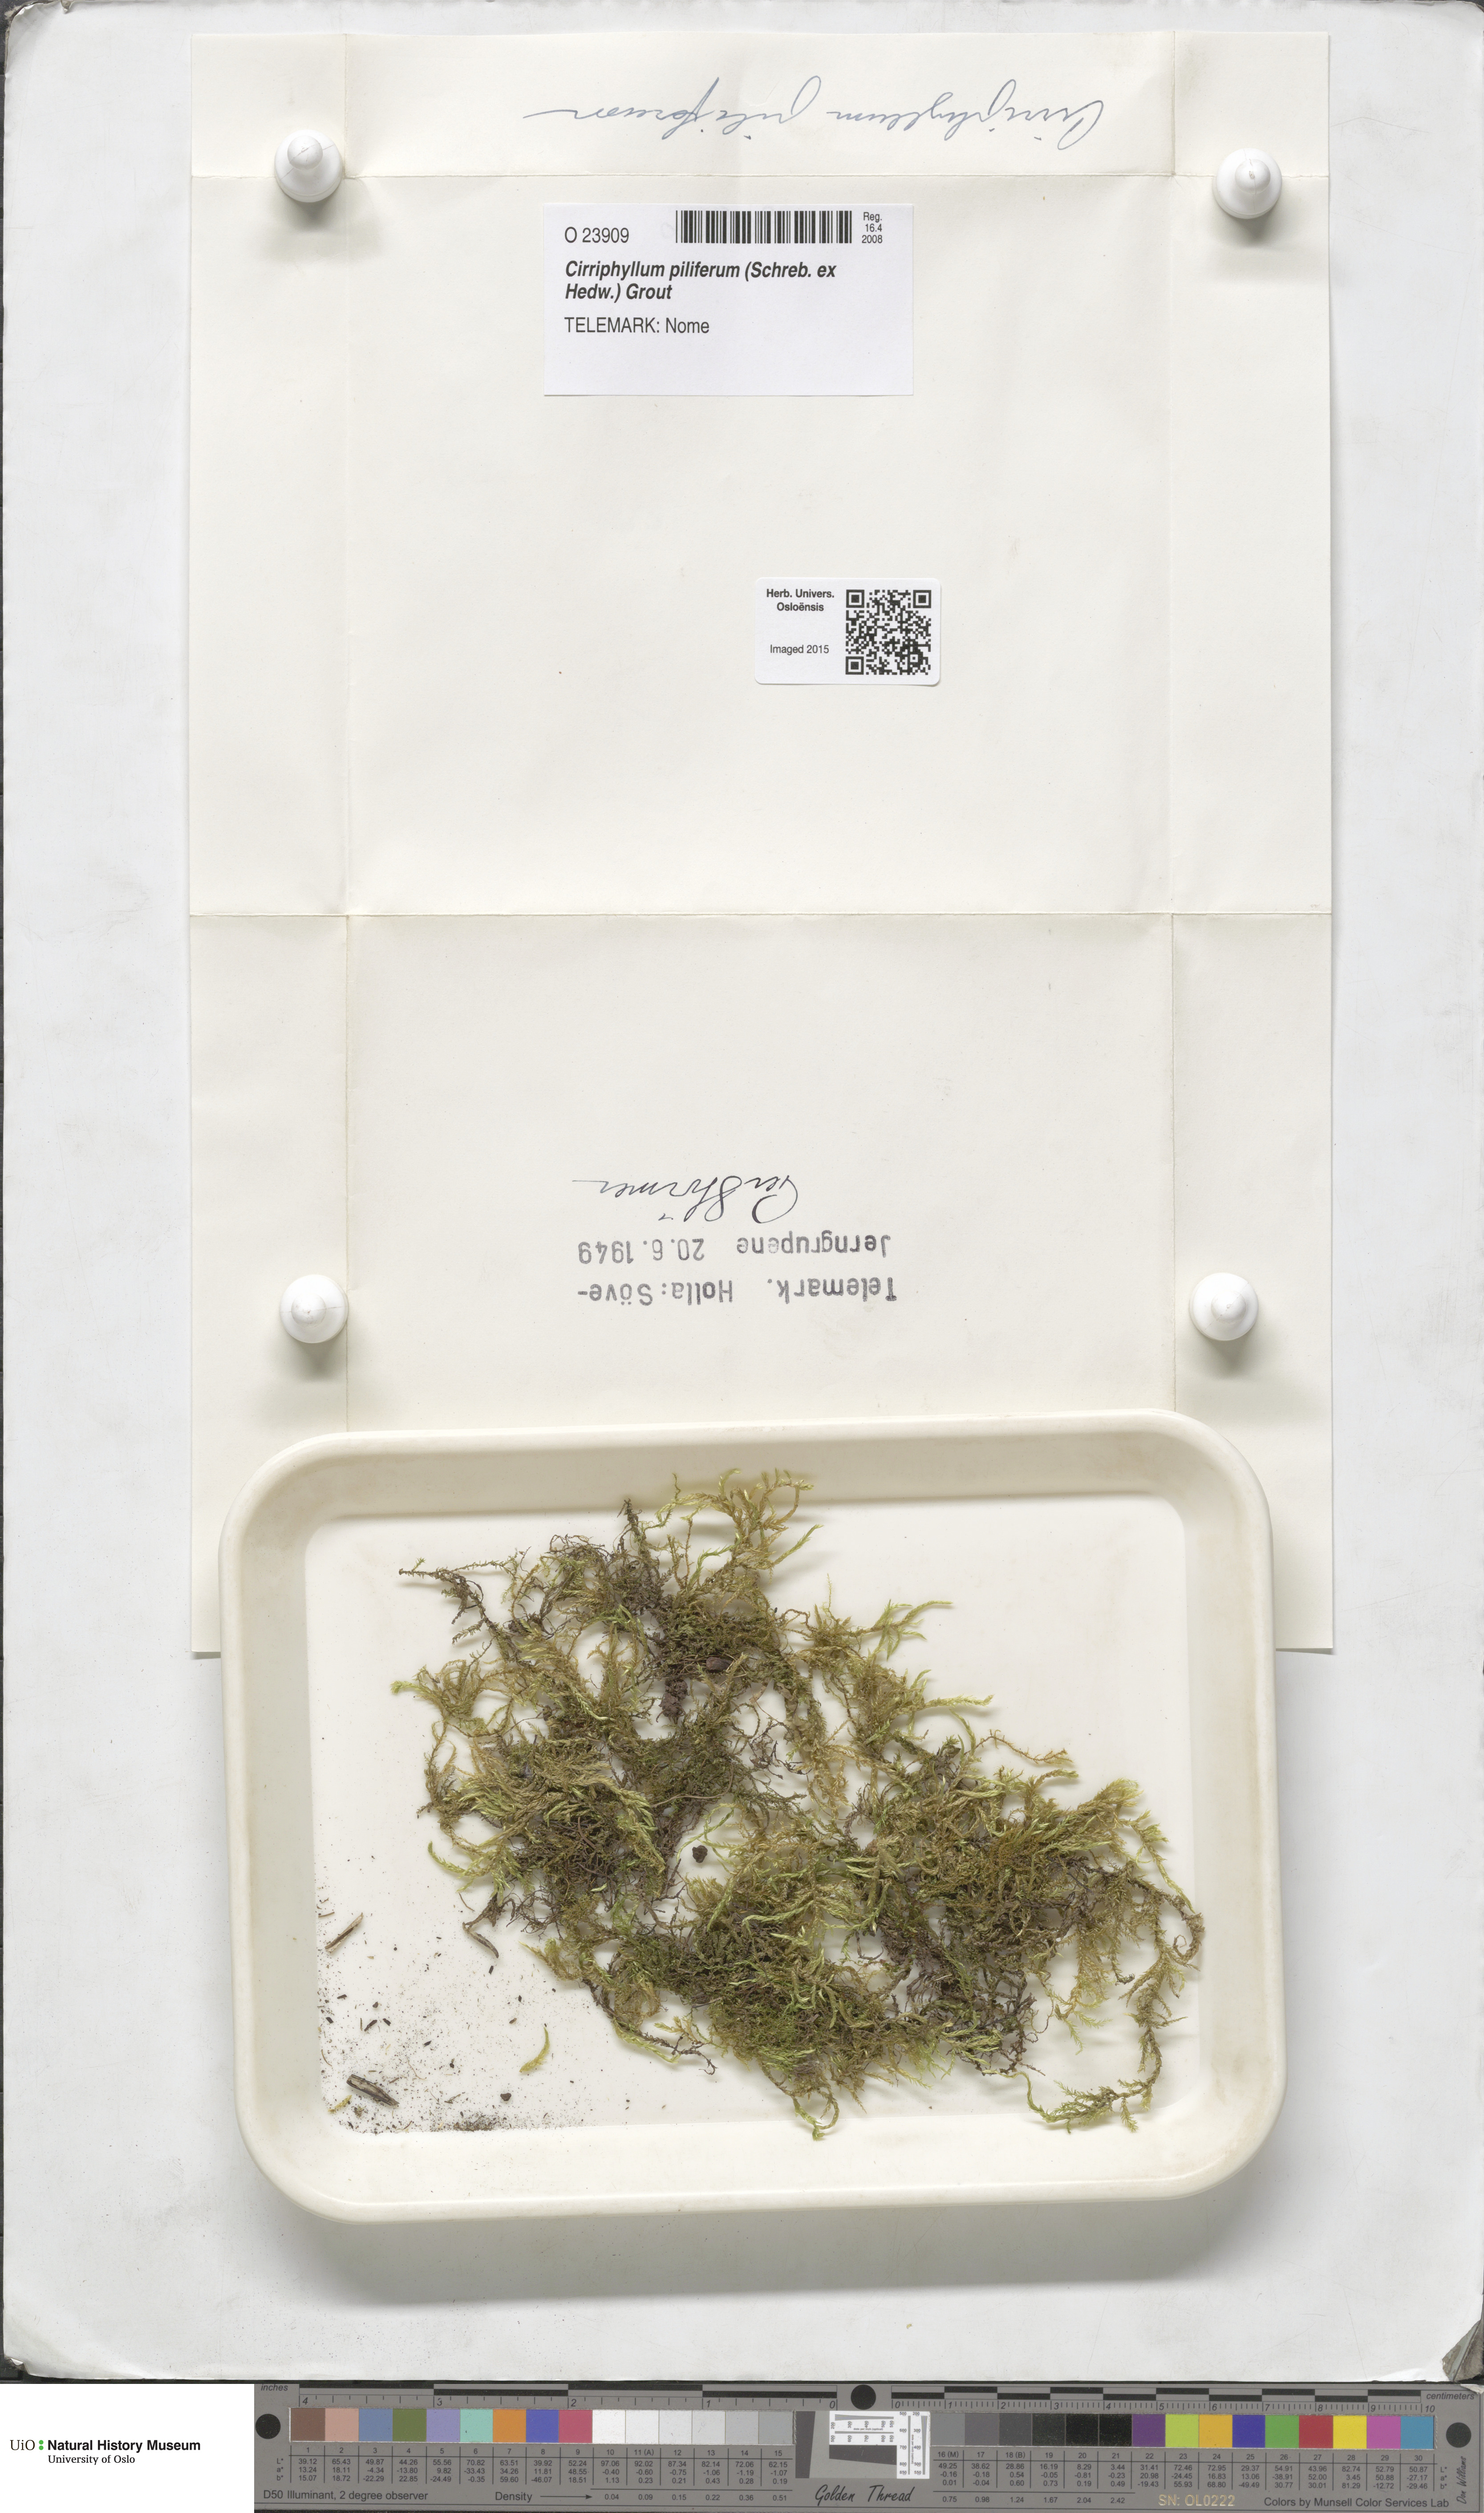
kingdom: Plantae
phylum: Bryophyta
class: Bryopsida
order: Hypnales
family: Brachytheciaceae
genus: Cirriphyllum
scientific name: Cirriphyllum piliferum
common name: Hair-pointed moss
